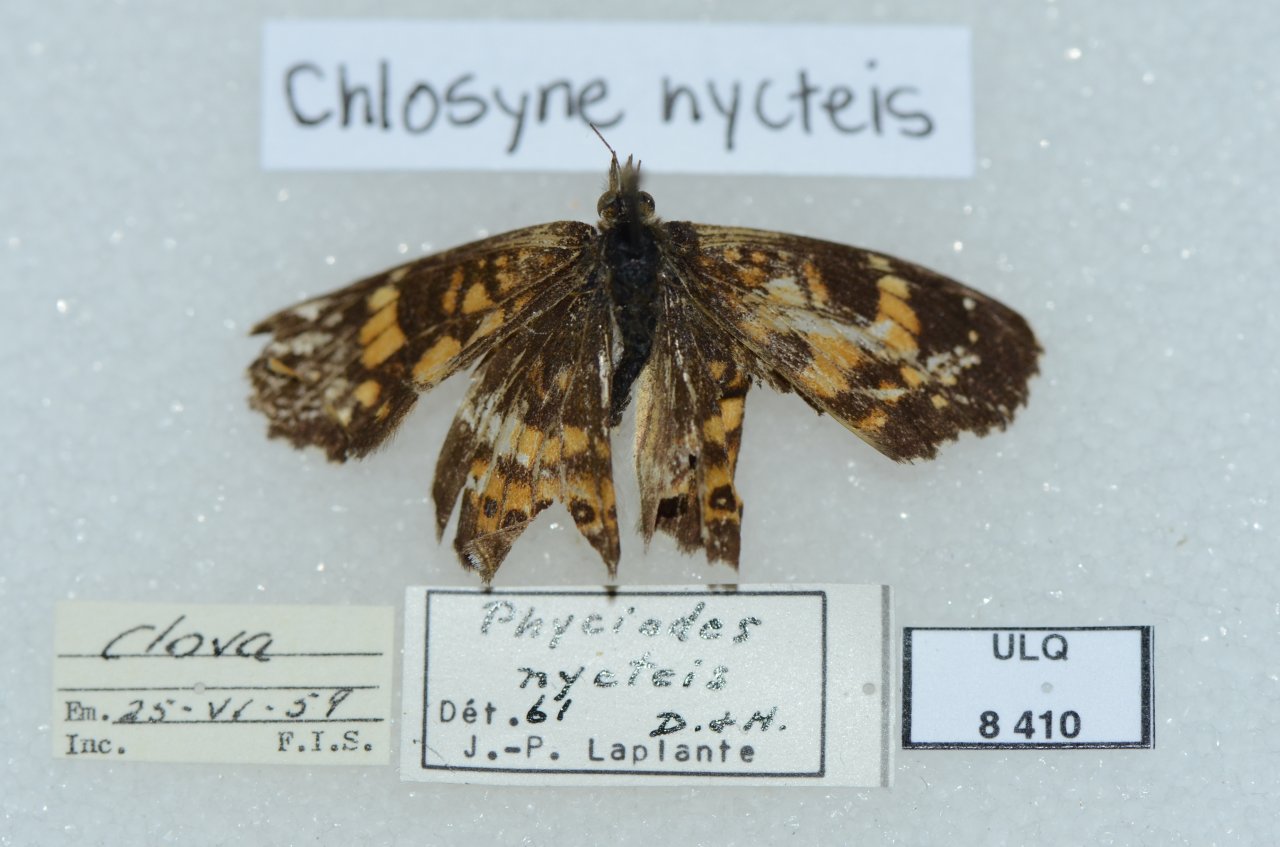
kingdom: Animalia
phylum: Arthropoda
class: Insecta
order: Lepidoptera
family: Nymphalidae
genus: Chlosyne
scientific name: Chlosyne nycteis
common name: Silvery Checkerspot
